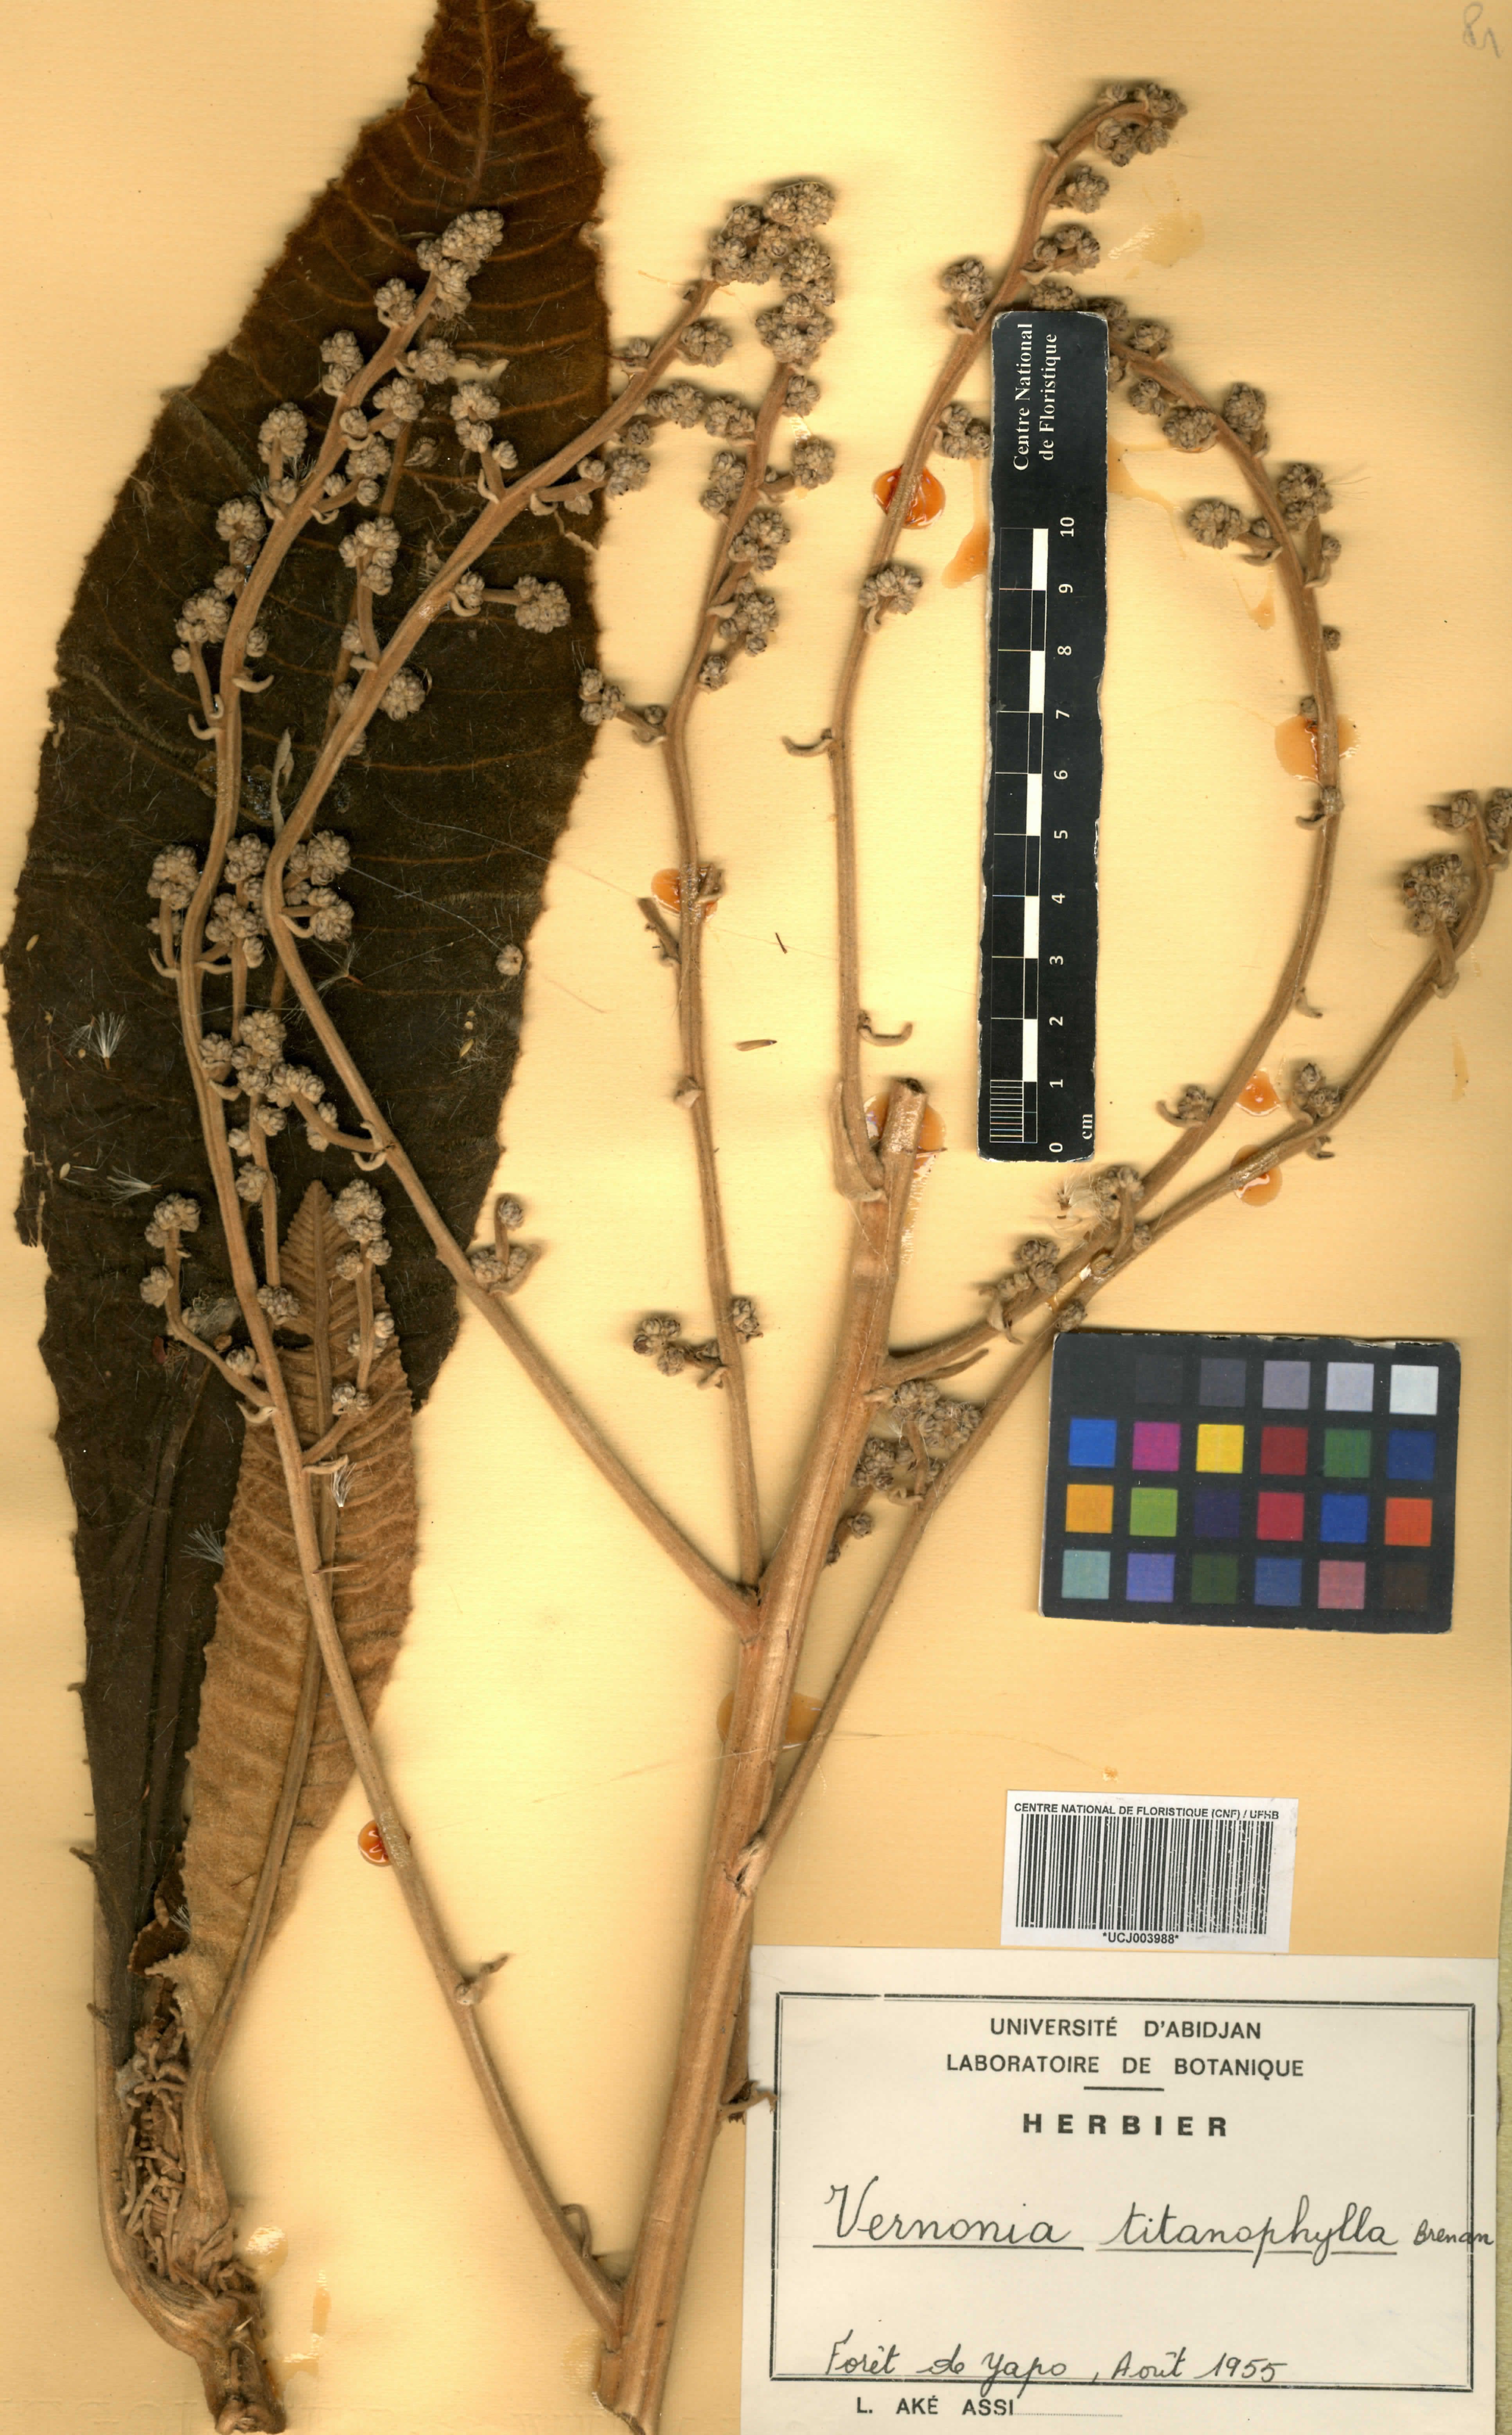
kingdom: Plantae
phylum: Tracheophyta
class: Magnoliopsida
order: Asterales
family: Asteraceae
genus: Brenandendron
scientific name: Brenandendron titanophyllum
